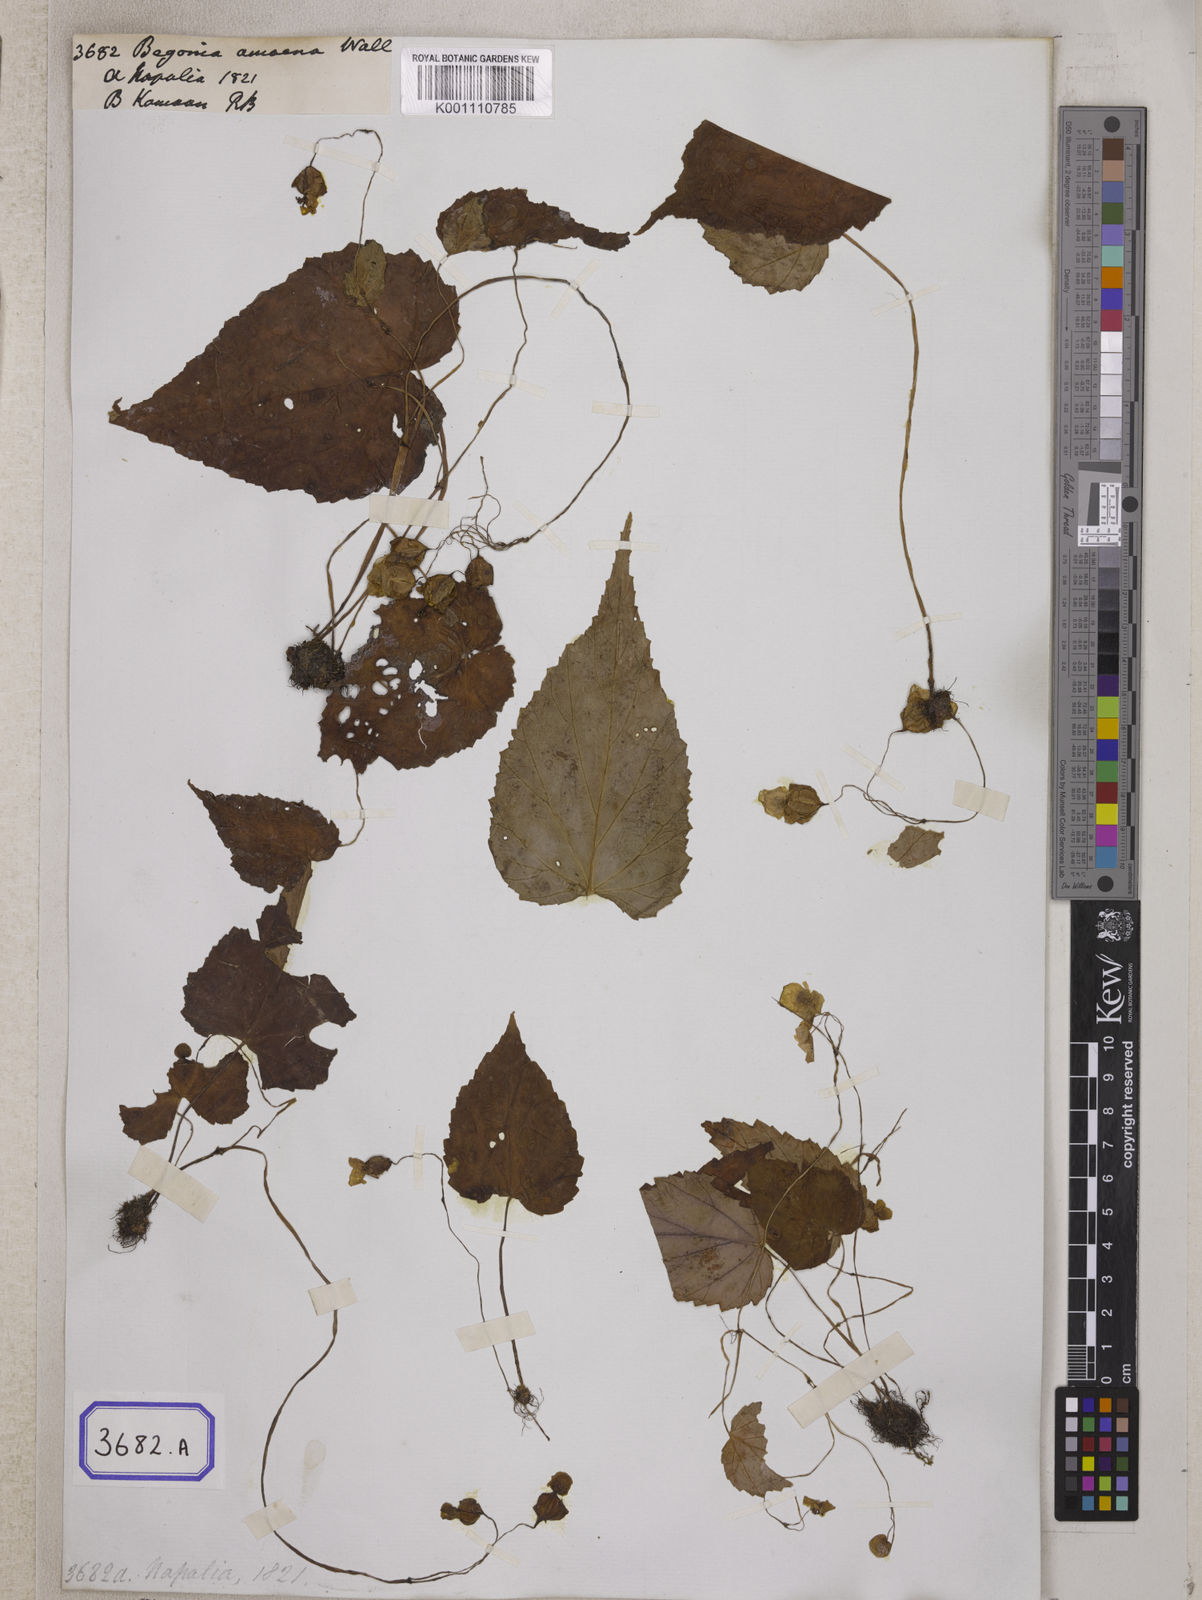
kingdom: Plantae
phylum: Tracheophyta
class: Magnoliopsida
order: Cucurbitales
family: Begoniaceae
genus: Begonia
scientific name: Begonia
